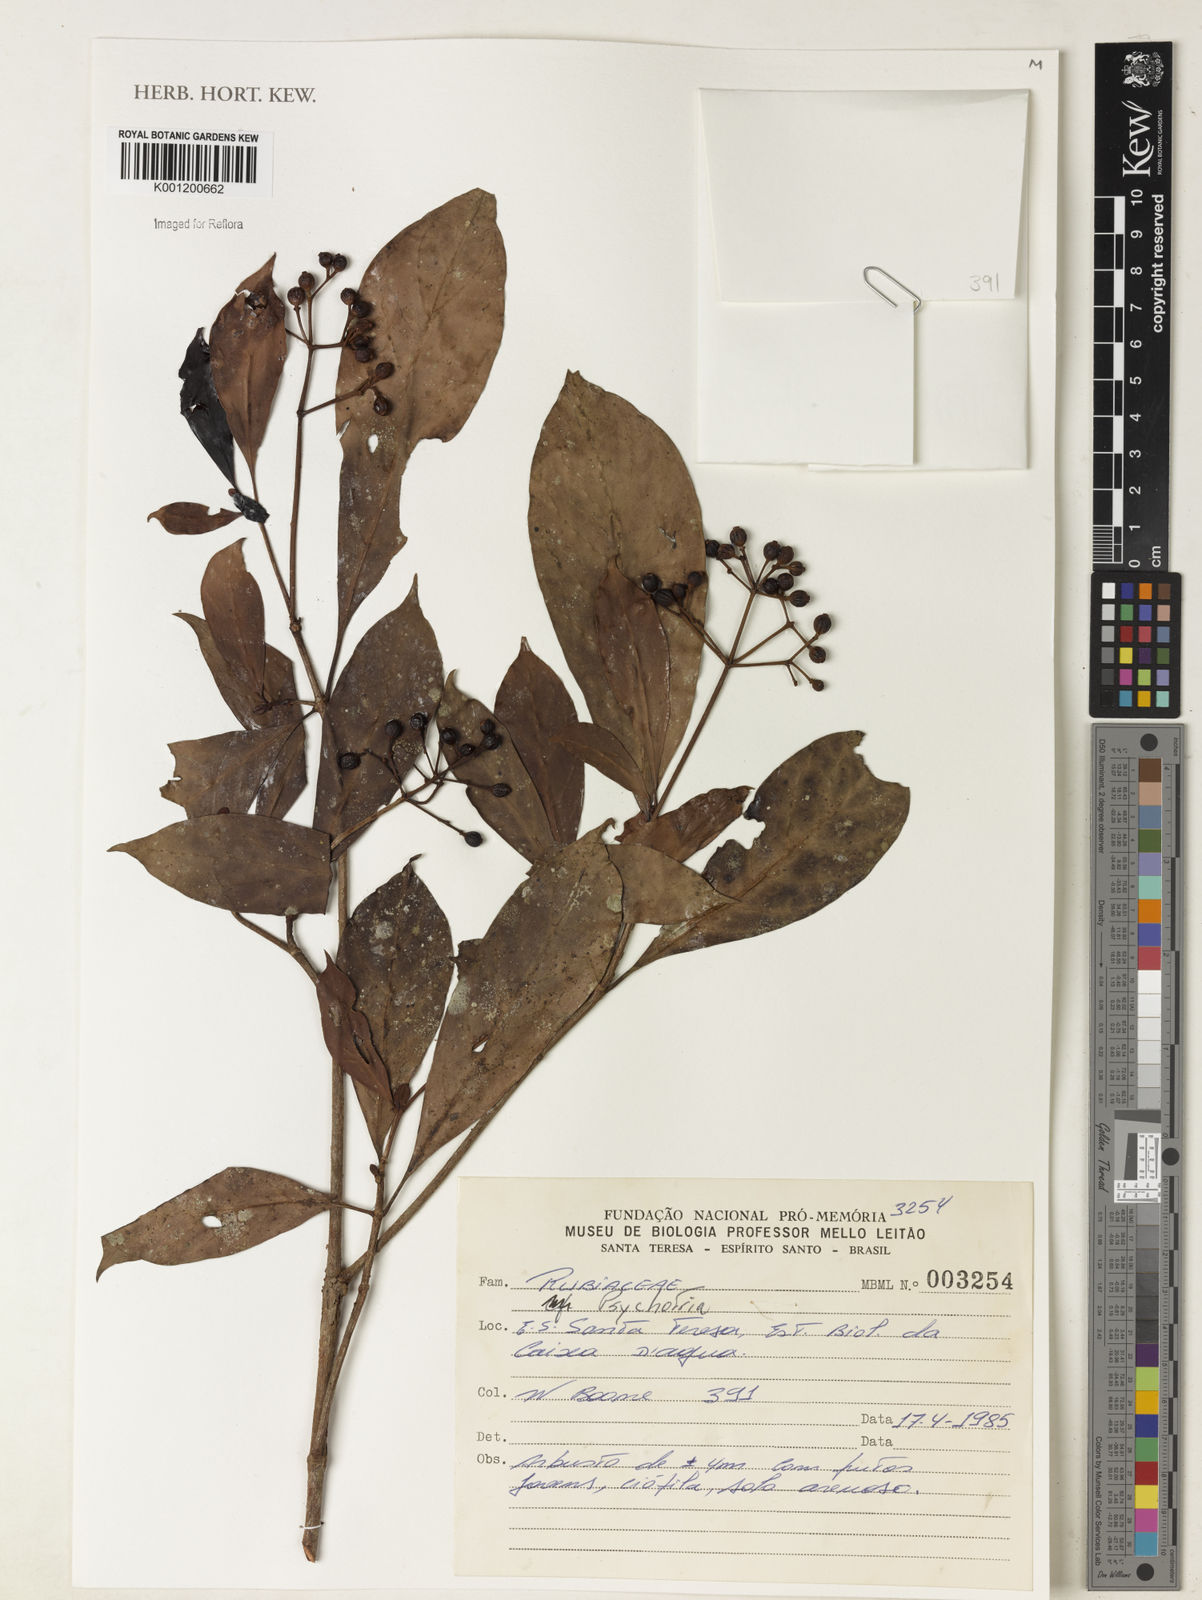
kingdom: Plantae
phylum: Tracheophyta
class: Magnoliopsida
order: Gentianales
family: Rubiaceae
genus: Psychotria
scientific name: Psychotria
